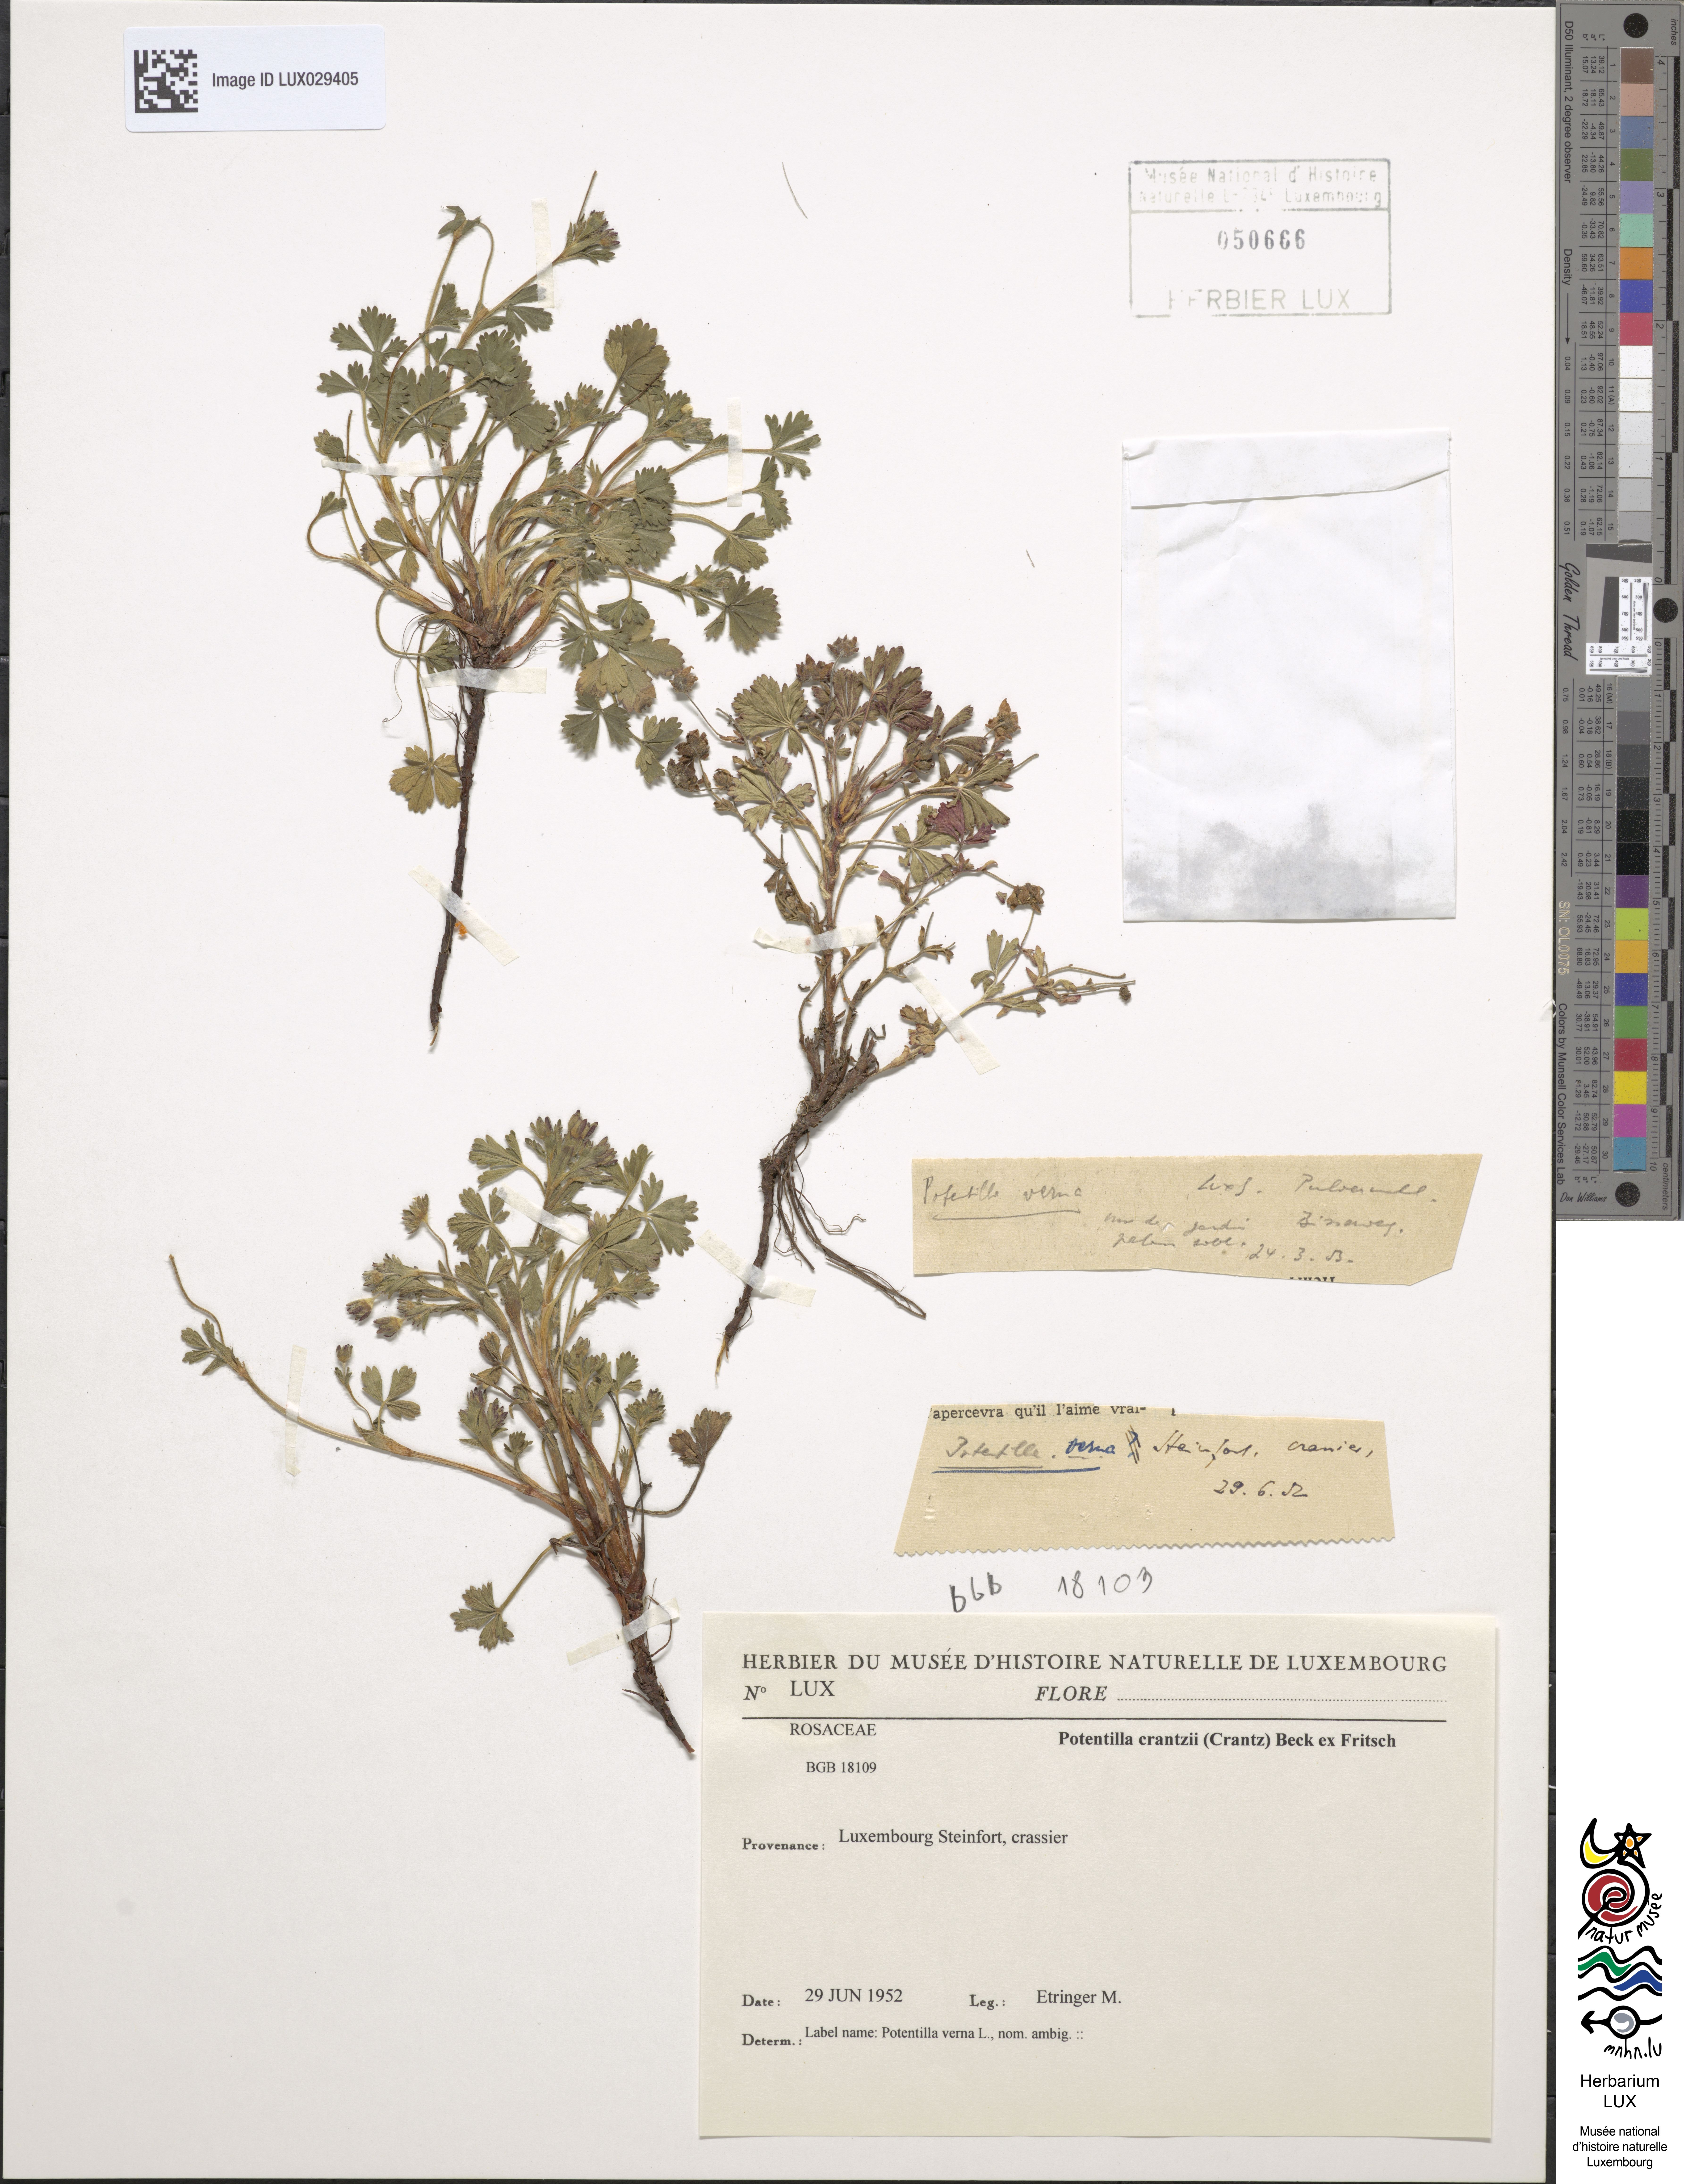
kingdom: Plantae
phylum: Tracheophyta
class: Magnoliopsida
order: Rosales
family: Rosaceae
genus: Potentilla
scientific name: Potentilla crantzii
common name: Alpine cinquefoil
